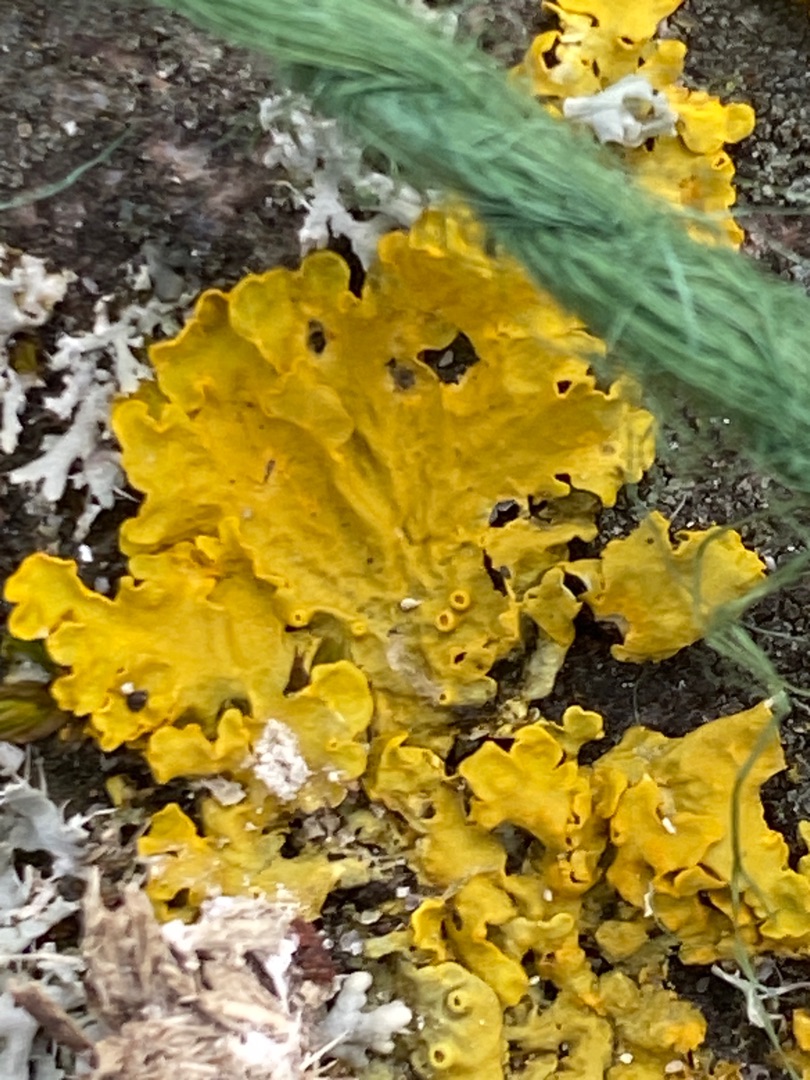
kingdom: Fungi
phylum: Ascomycota
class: Lecanoromycetes
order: Teloschistales
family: Teloschistaceae
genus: Xanthoria
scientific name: Xanthoria parietina
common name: Almindelig væggelav
